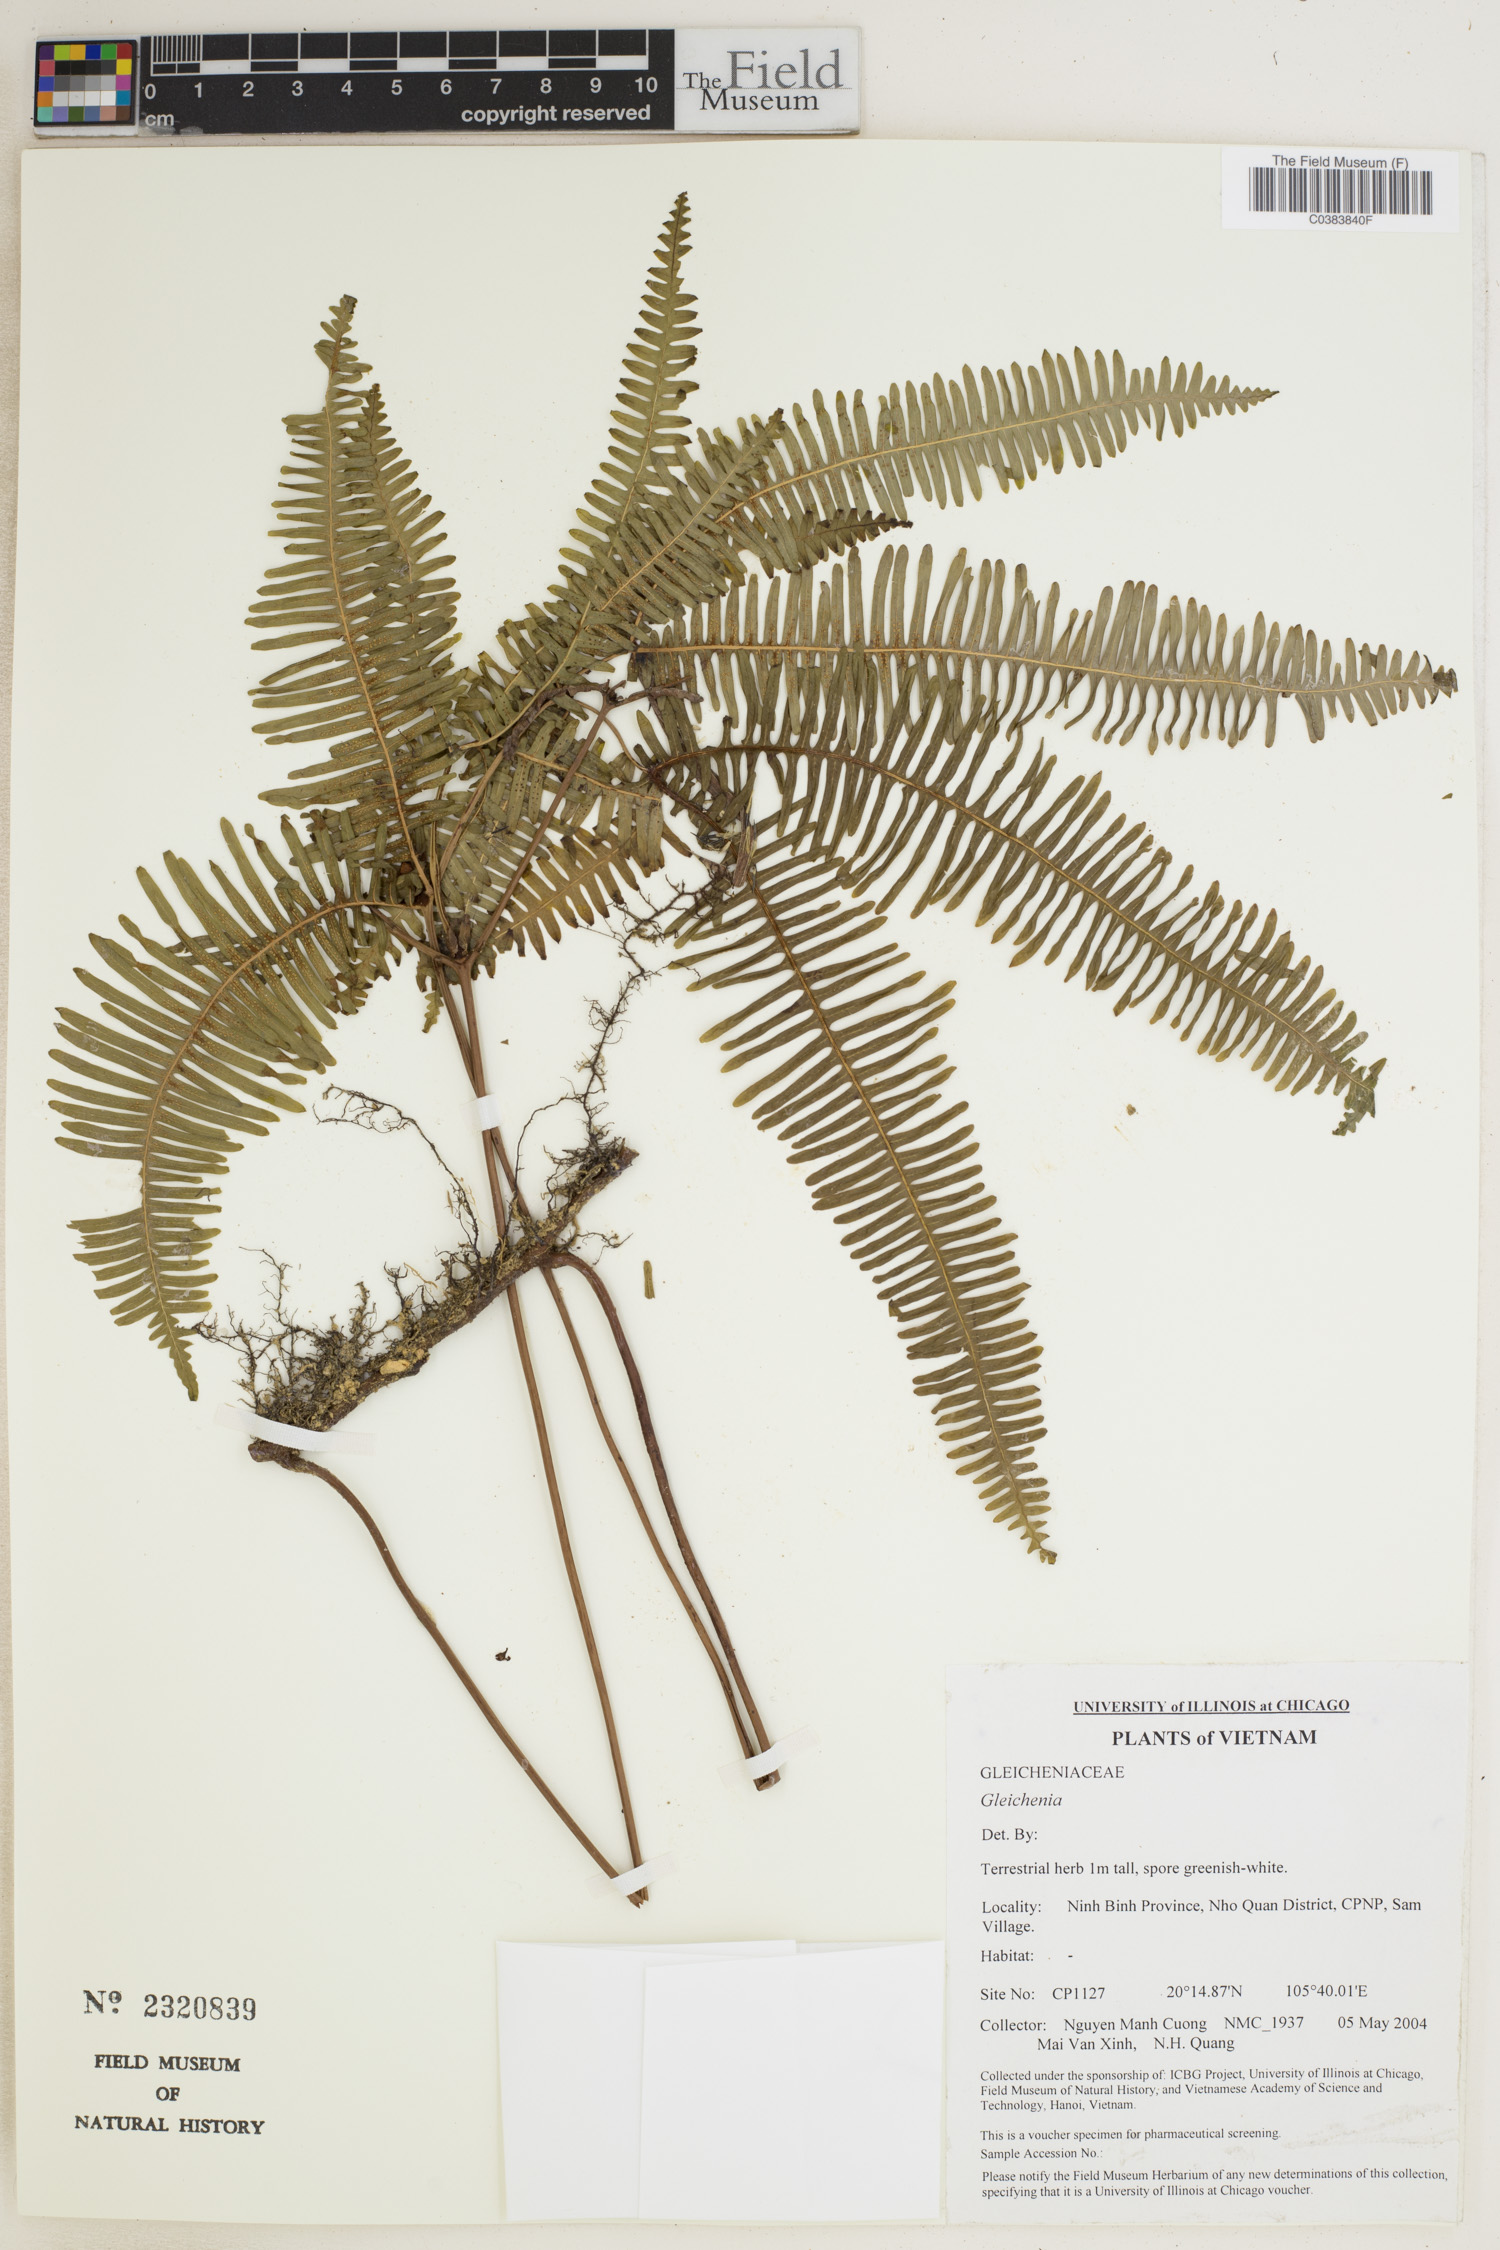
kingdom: Plantae
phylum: Tracheophyta
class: Polypodiopsida
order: Gleicheniales
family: Gleicheniaceae
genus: Gleichenia
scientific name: Gleichenia
